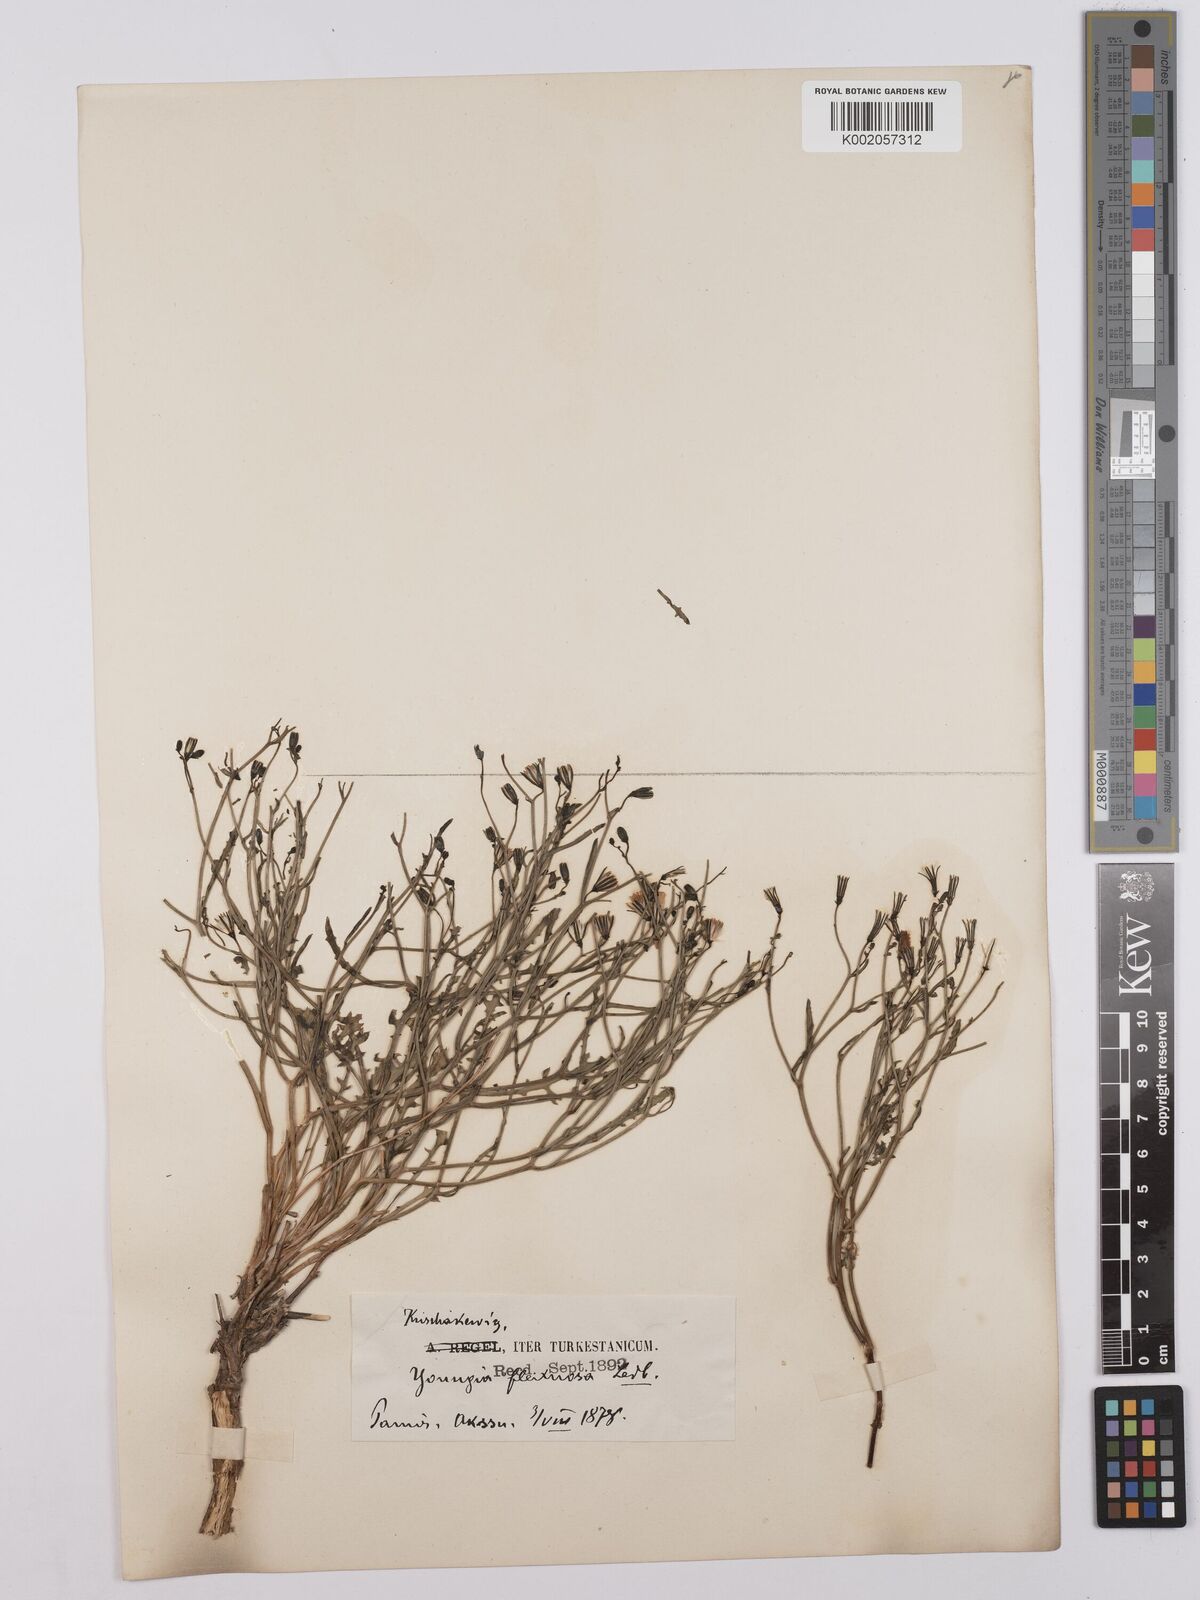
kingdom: Plantae
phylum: Tracheophyta
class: Magnoliopsida
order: Asterales
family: Asteraceae
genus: Askellia
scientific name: Askellia flexuosa
